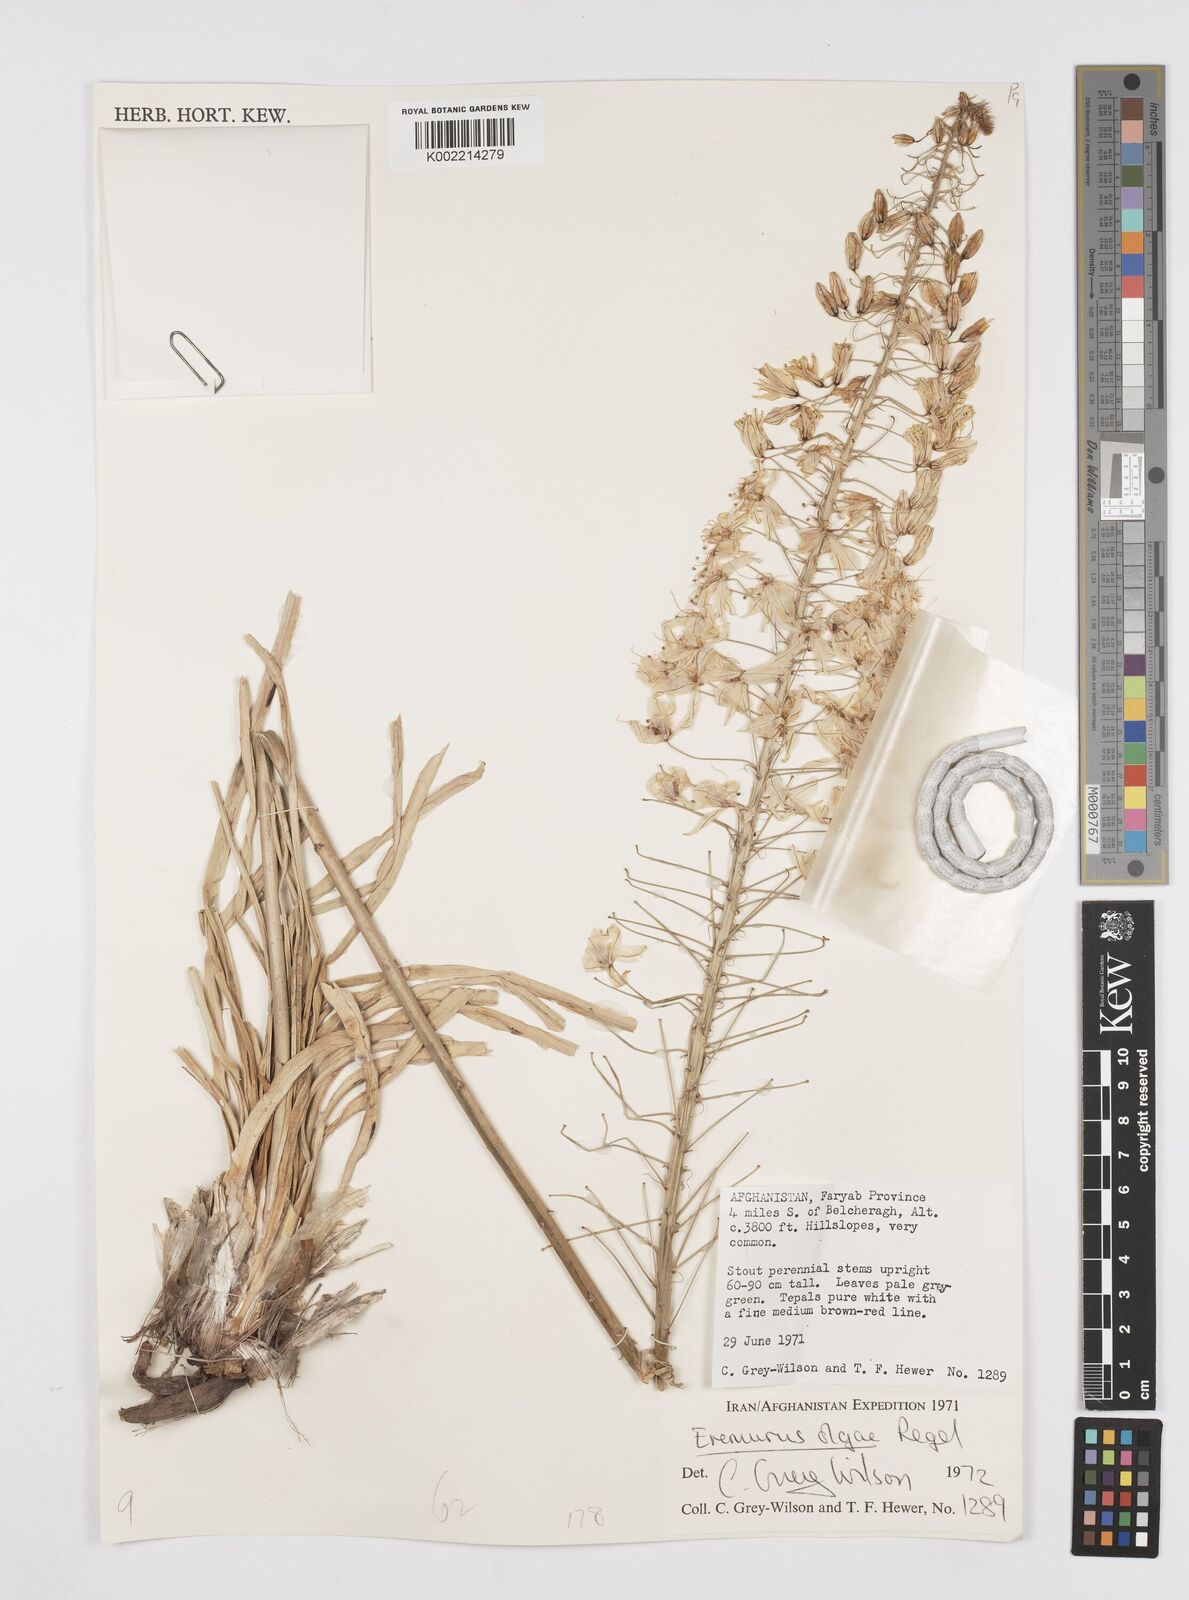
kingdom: Plantae
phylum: Tracheophyta
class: Liliopsida
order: Asparagales
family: Asphodelaceae
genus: Eremurus
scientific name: Eremurus olgae
